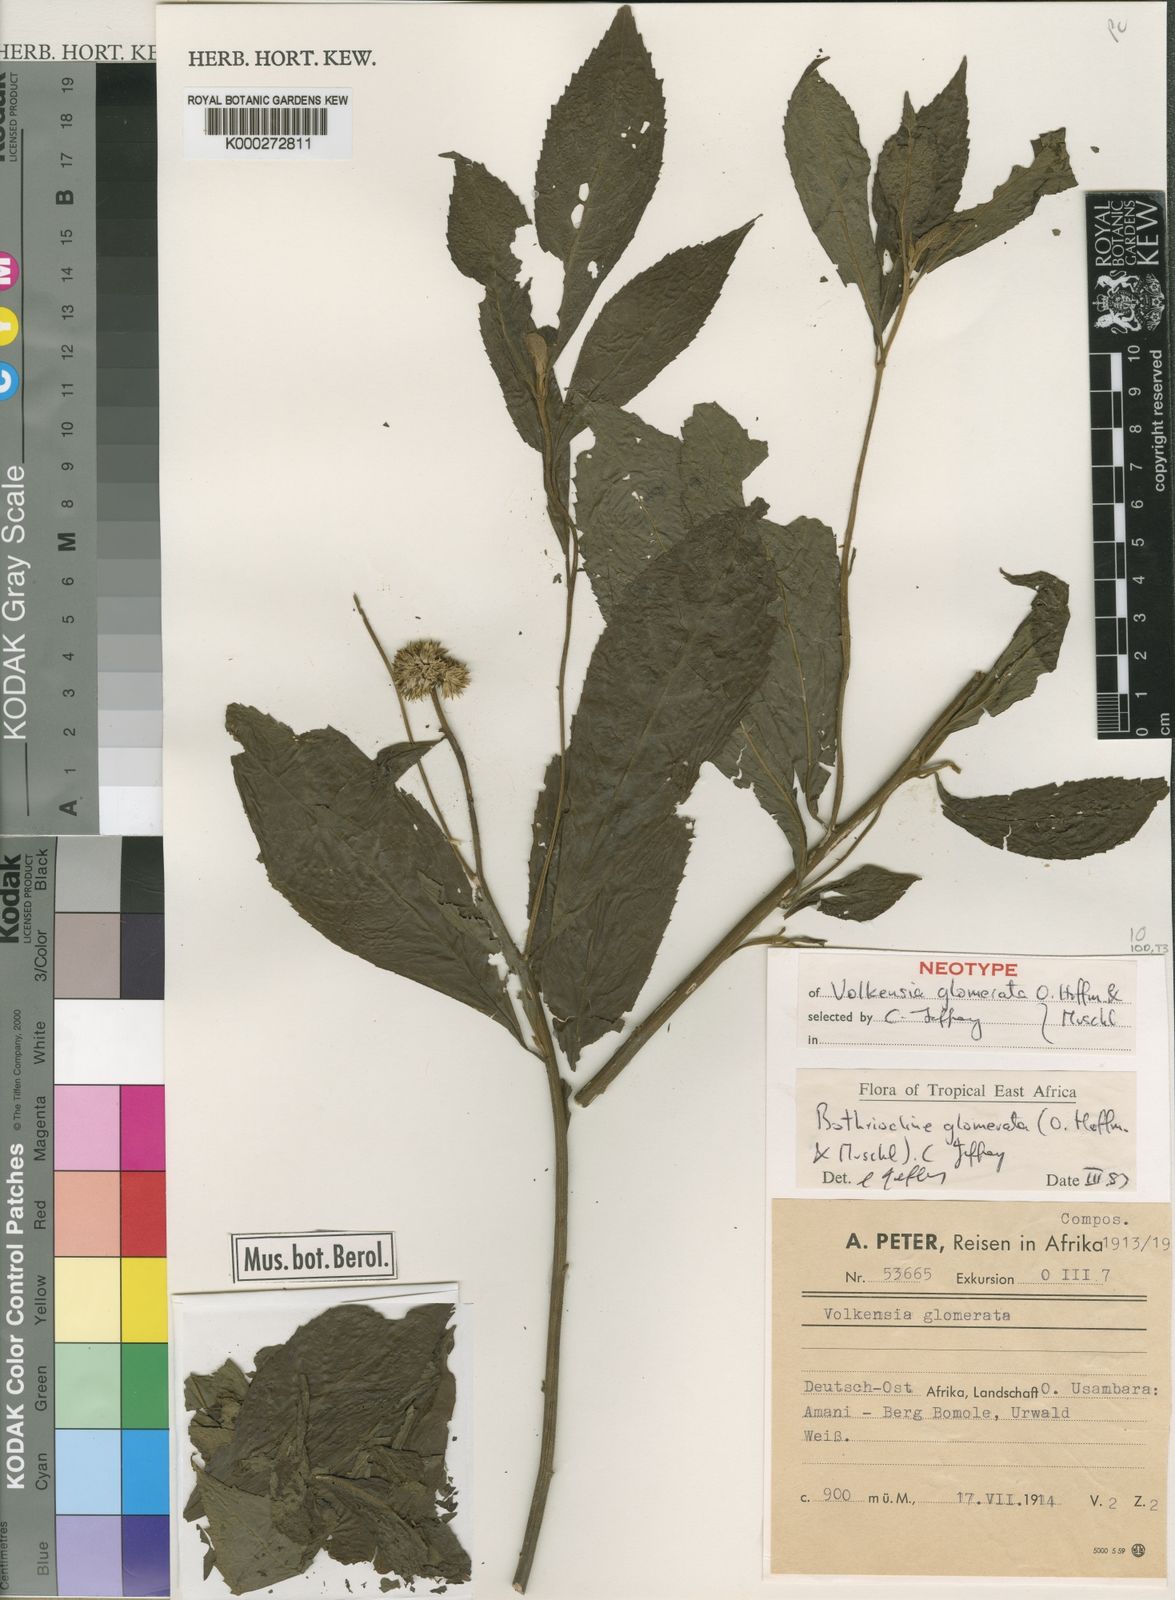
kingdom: Plantae
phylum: Tracheophyta
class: Magnoliopsida
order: Asterales
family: Asteraceae
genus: Bothriocline
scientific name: Bothriocline glomerata
